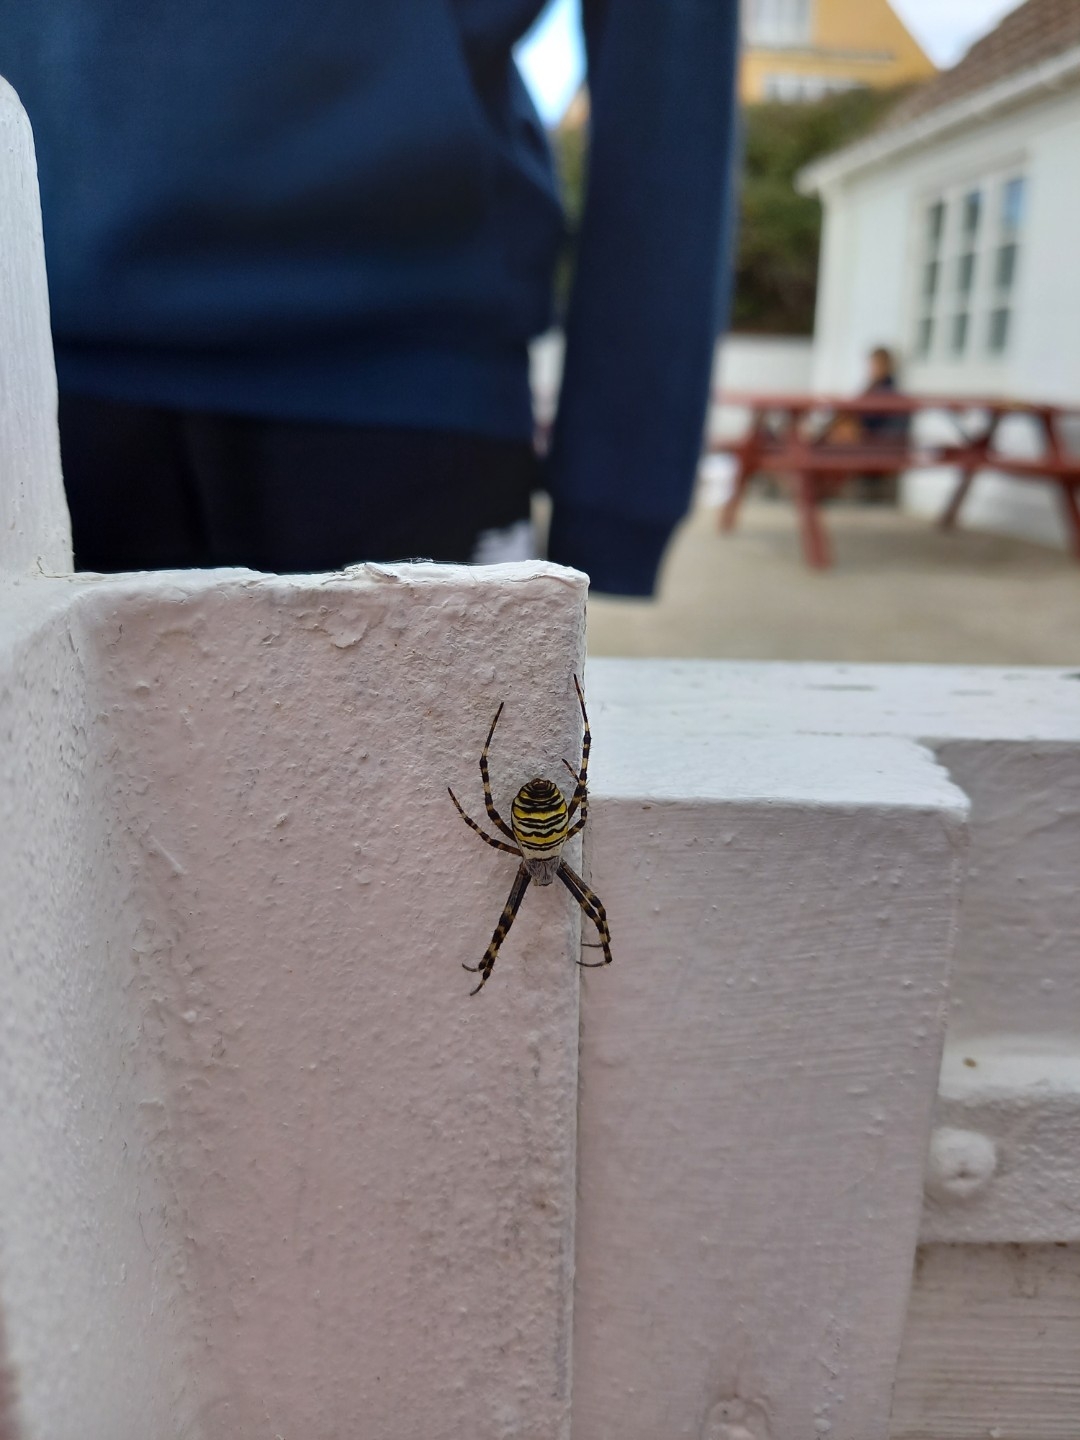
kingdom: Animalia
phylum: Arthropoda
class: Arachnida
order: Araneae
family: Araneidae
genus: Argiope
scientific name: Argiope bruennichi
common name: Hvepseedderkop
